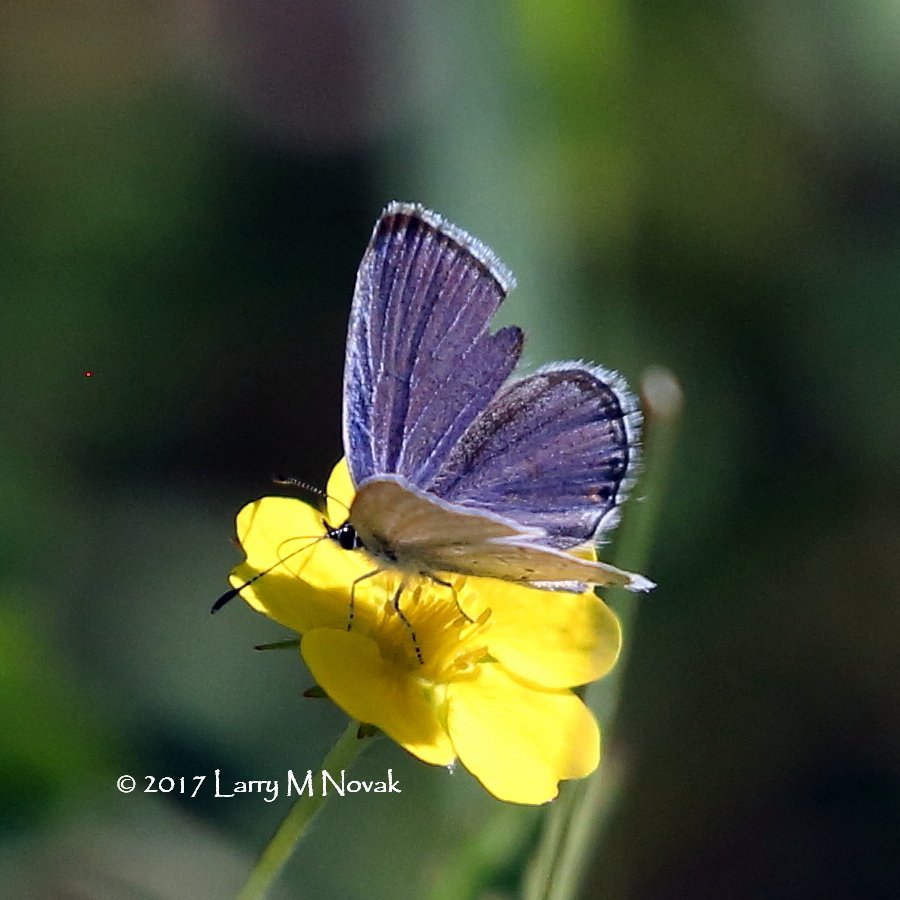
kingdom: Animalia
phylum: Arthropoda
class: Insecta
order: Lepidoptera
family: Lycaenidae
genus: Elkalyce
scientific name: Elkalyce comyntas
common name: Eastern Tailed-Blue
